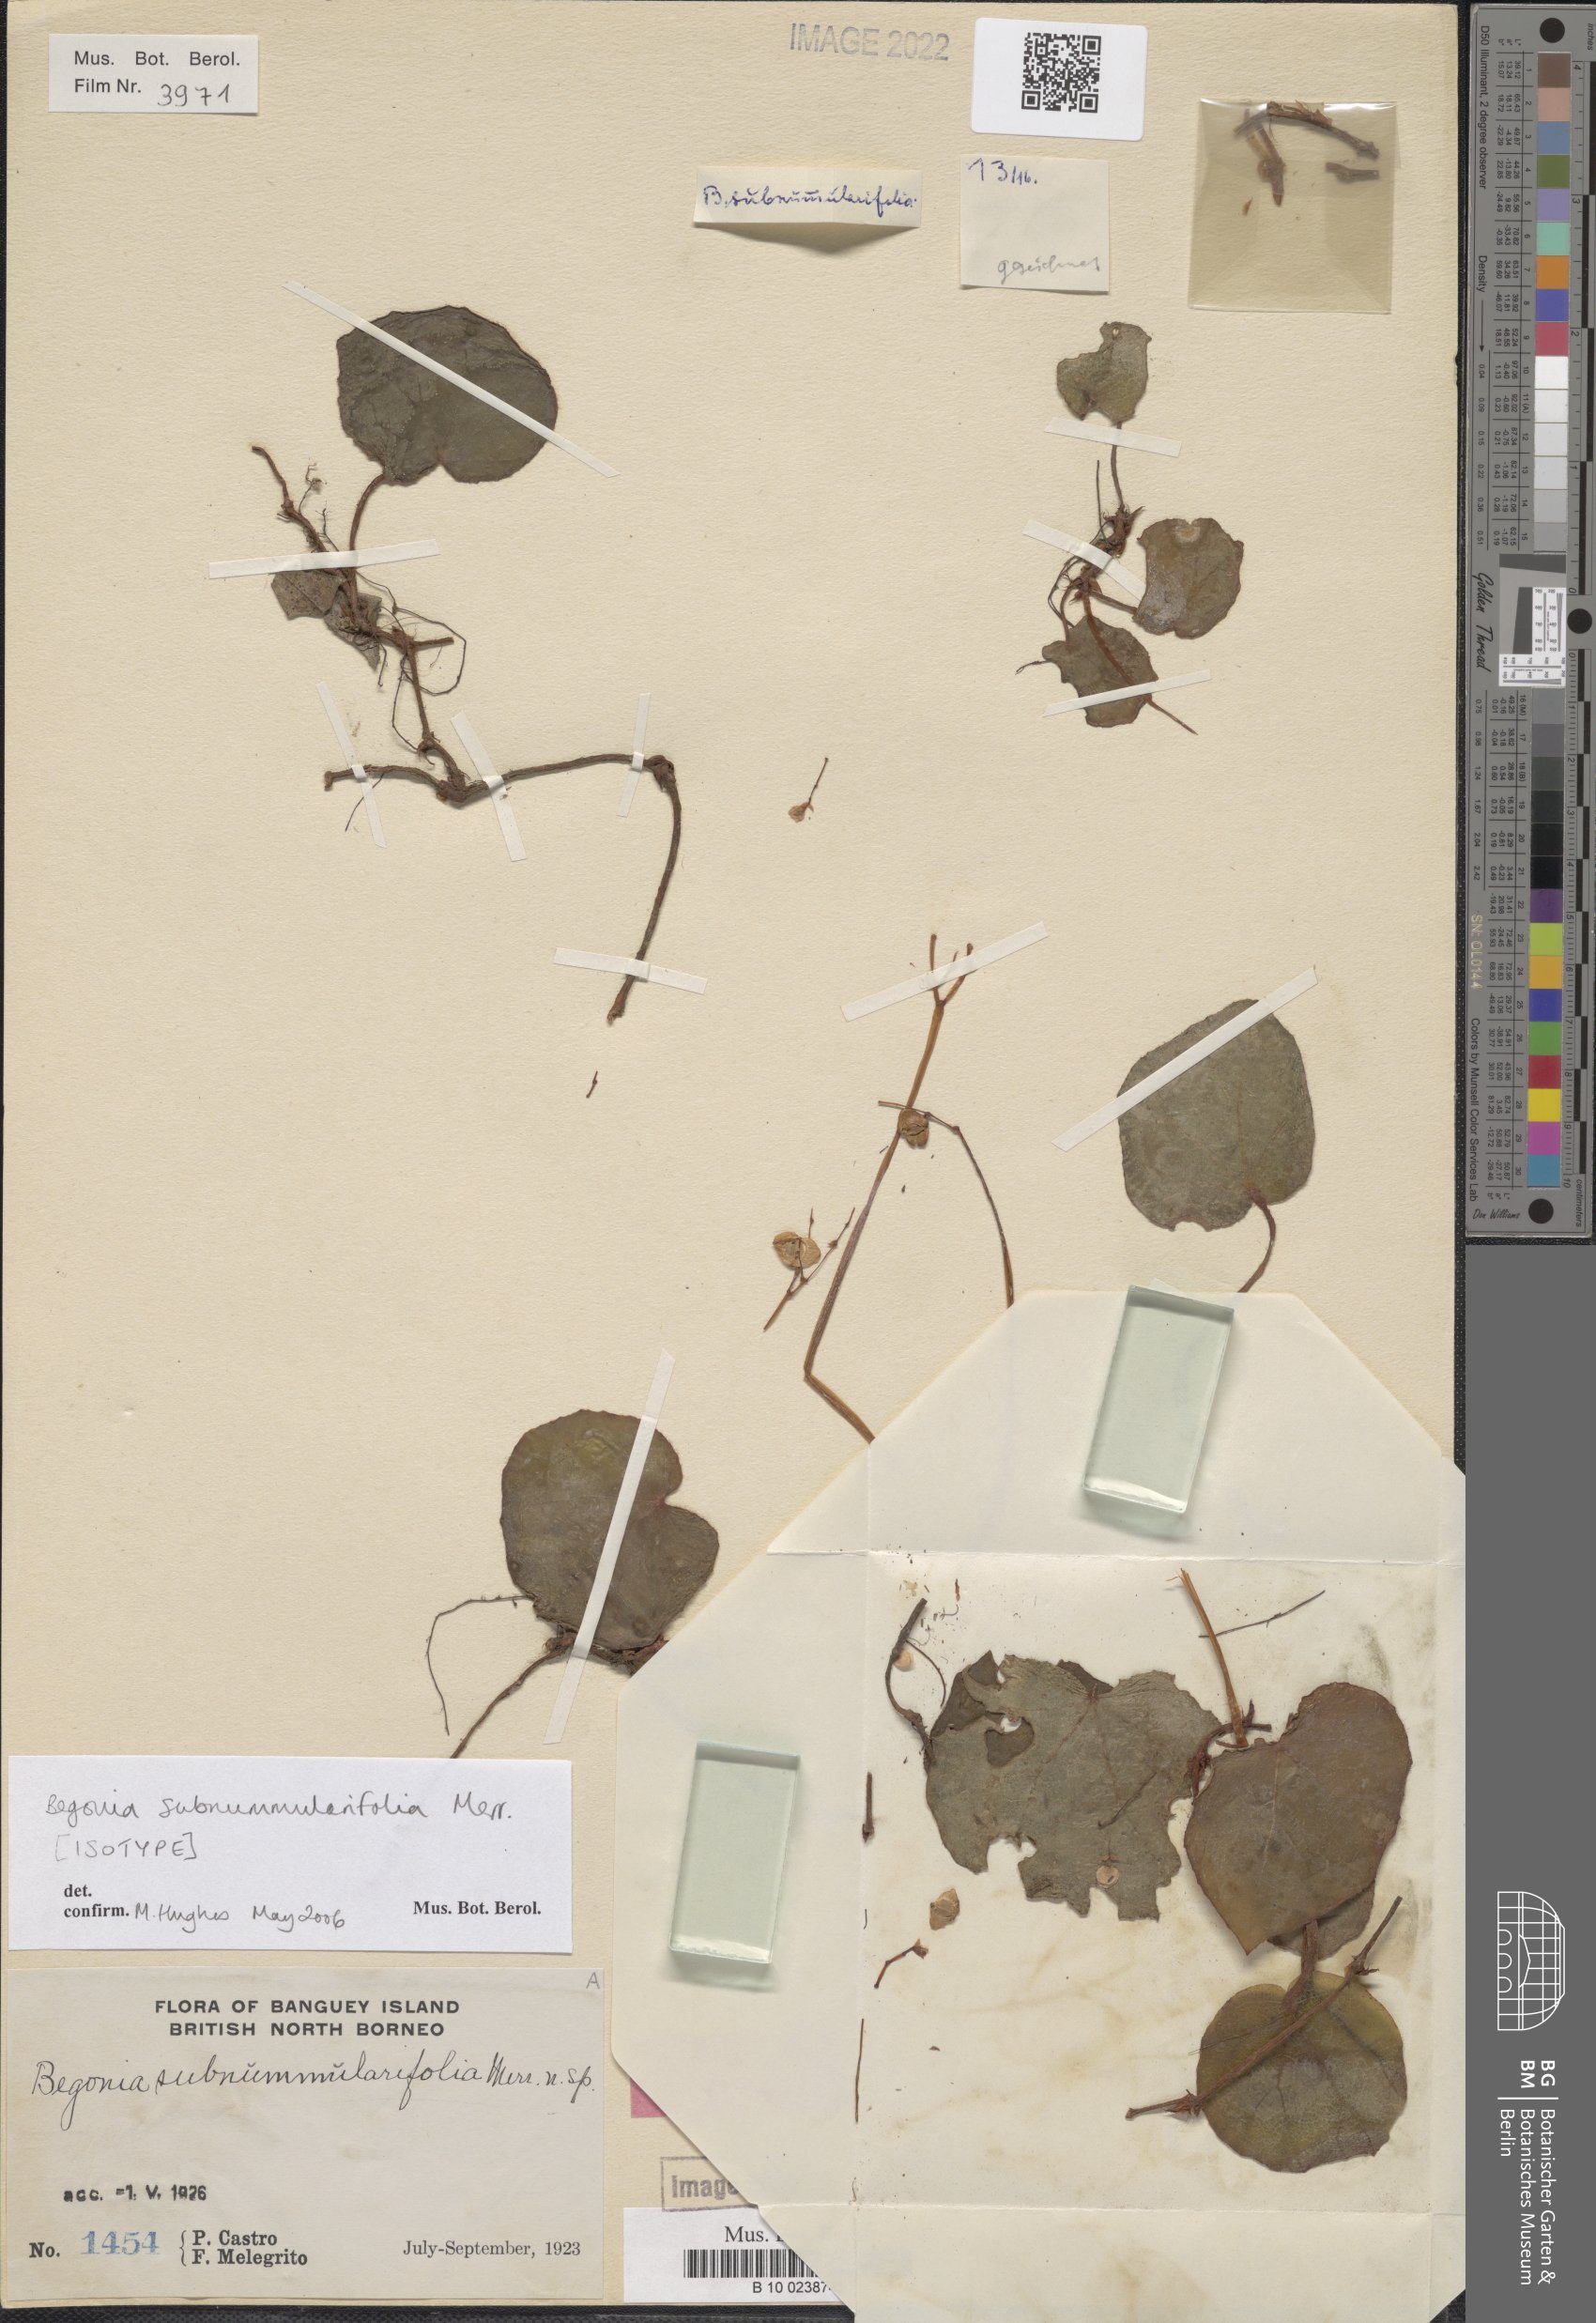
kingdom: Plantae
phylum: Tracheophyta
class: Magnoliopsida
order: Cucurbitales
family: Begoniaceae
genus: Begonia
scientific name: Begonia subnummularifolia
